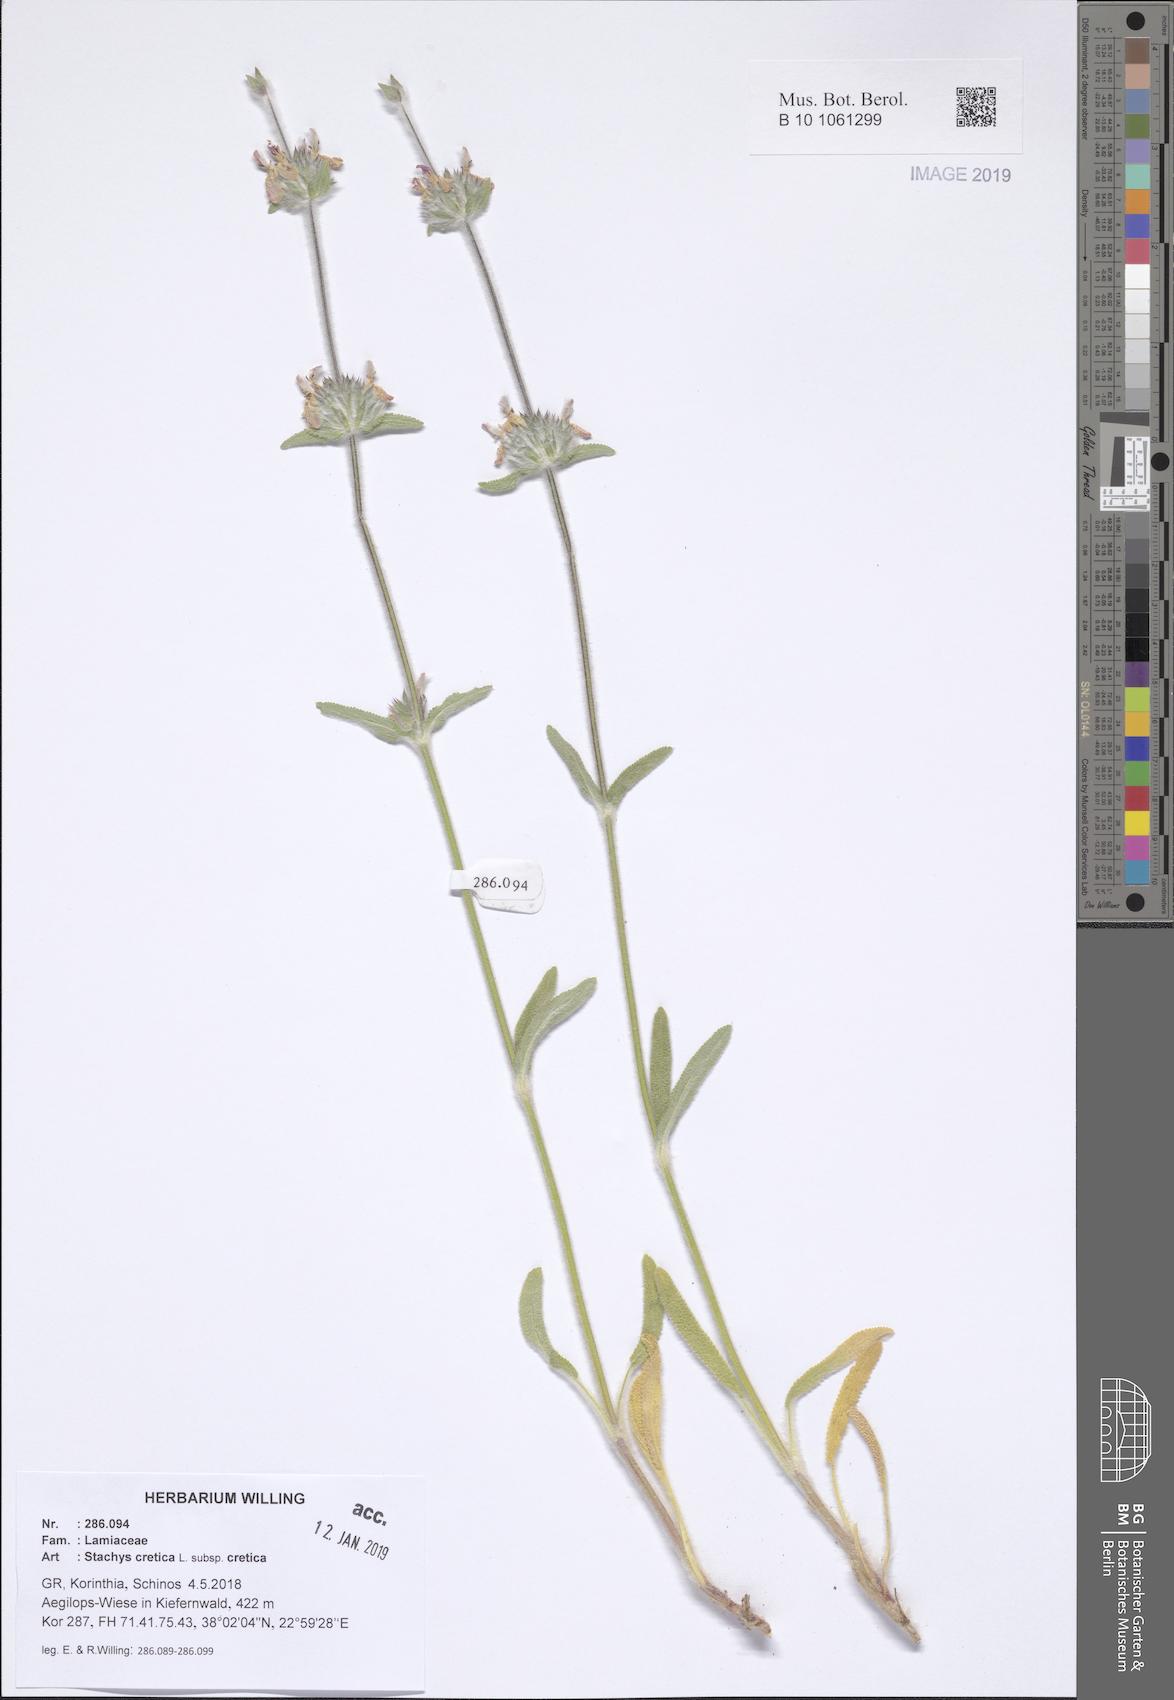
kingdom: Plantae
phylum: Tracheophyta
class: Magnoliopsida
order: Lamiales
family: Lamiaceae
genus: Stachys
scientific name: Stachys cretica
